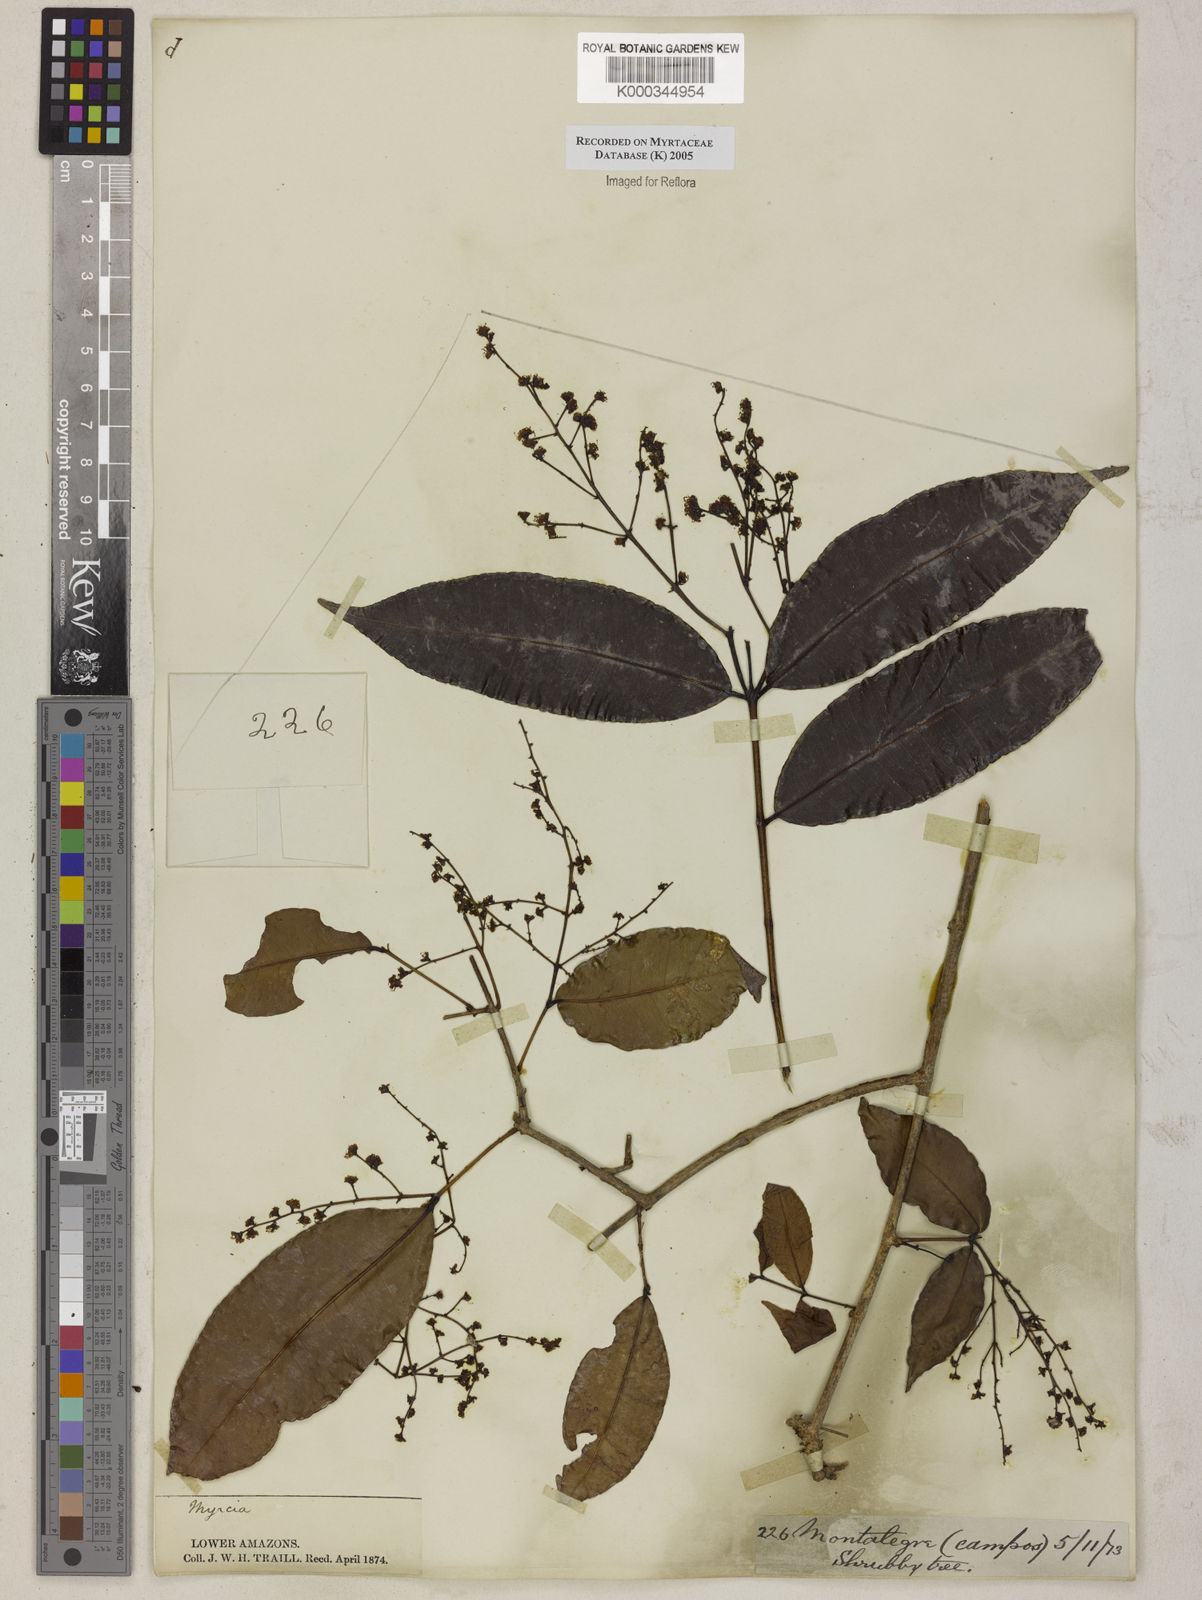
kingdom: Plantae
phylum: Tracheophyta
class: Magnoliopsida
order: Myrtales
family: Myrtaceae
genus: Myrcia
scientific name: Myrcia
